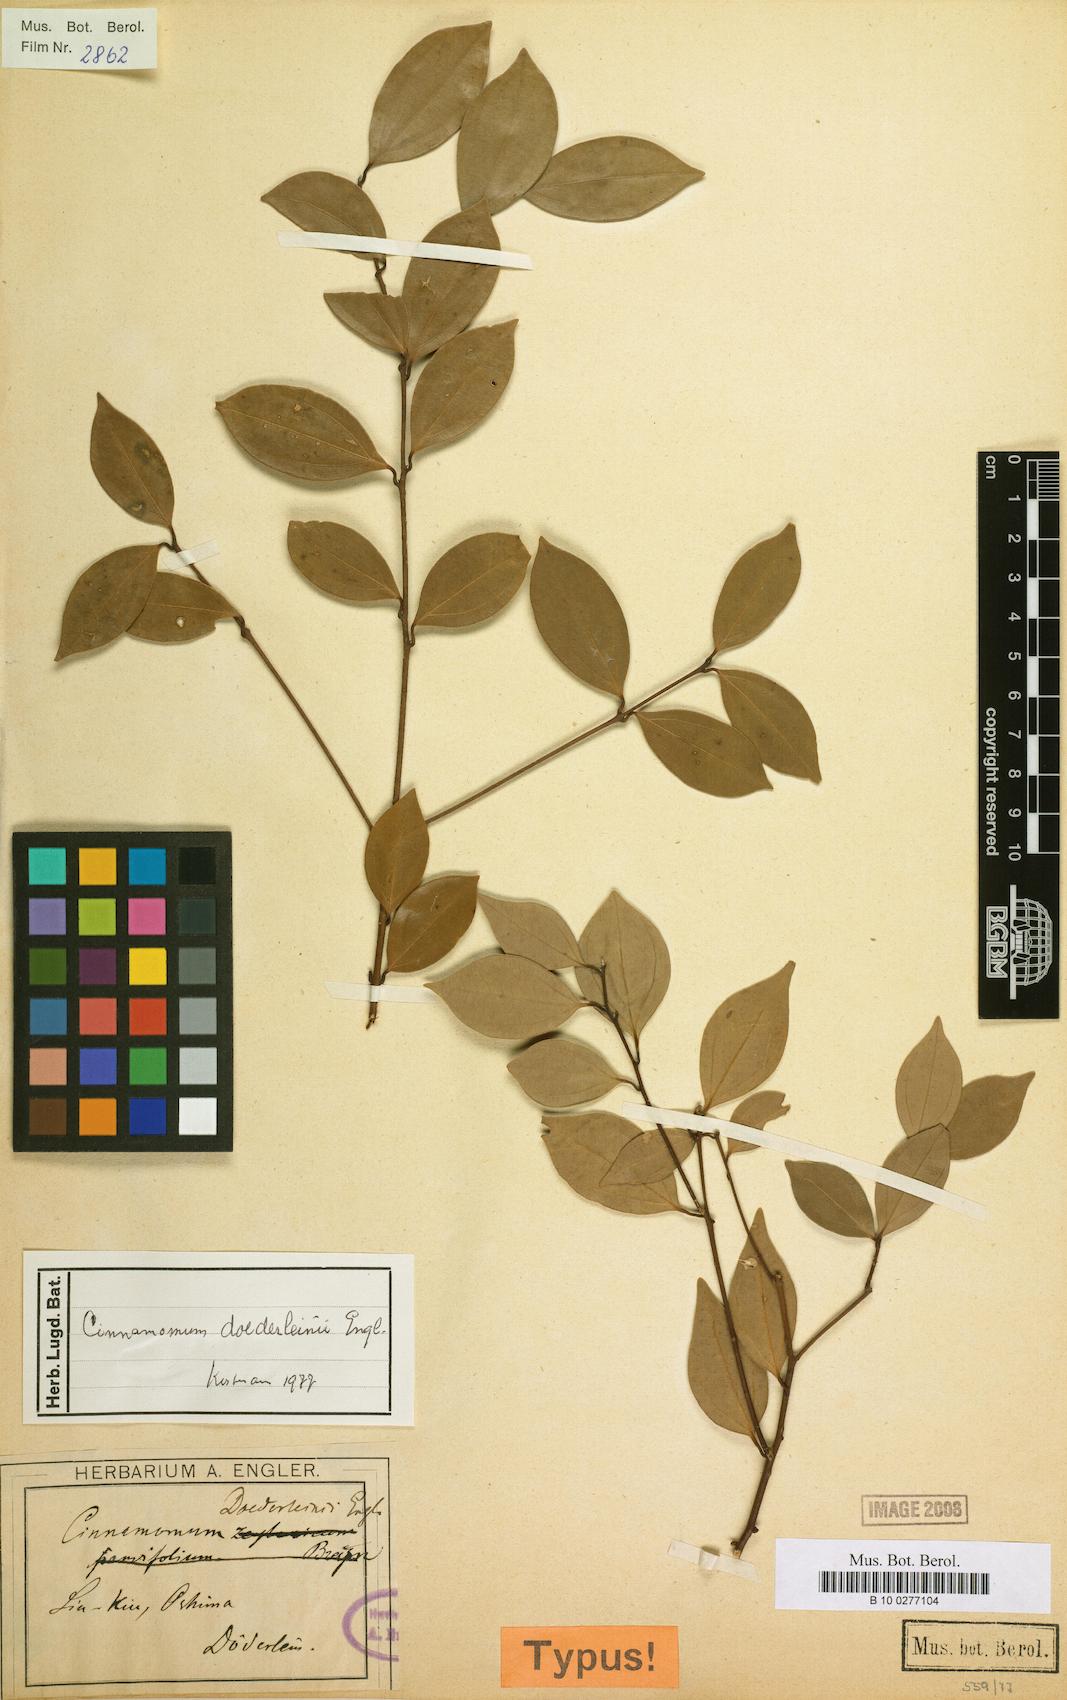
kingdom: Plantae
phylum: Tracheophyta
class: Magnoliopsida
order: Laurales
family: Lauraceae
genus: Cinnamomum
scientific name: Cinnamomum doederleinii
